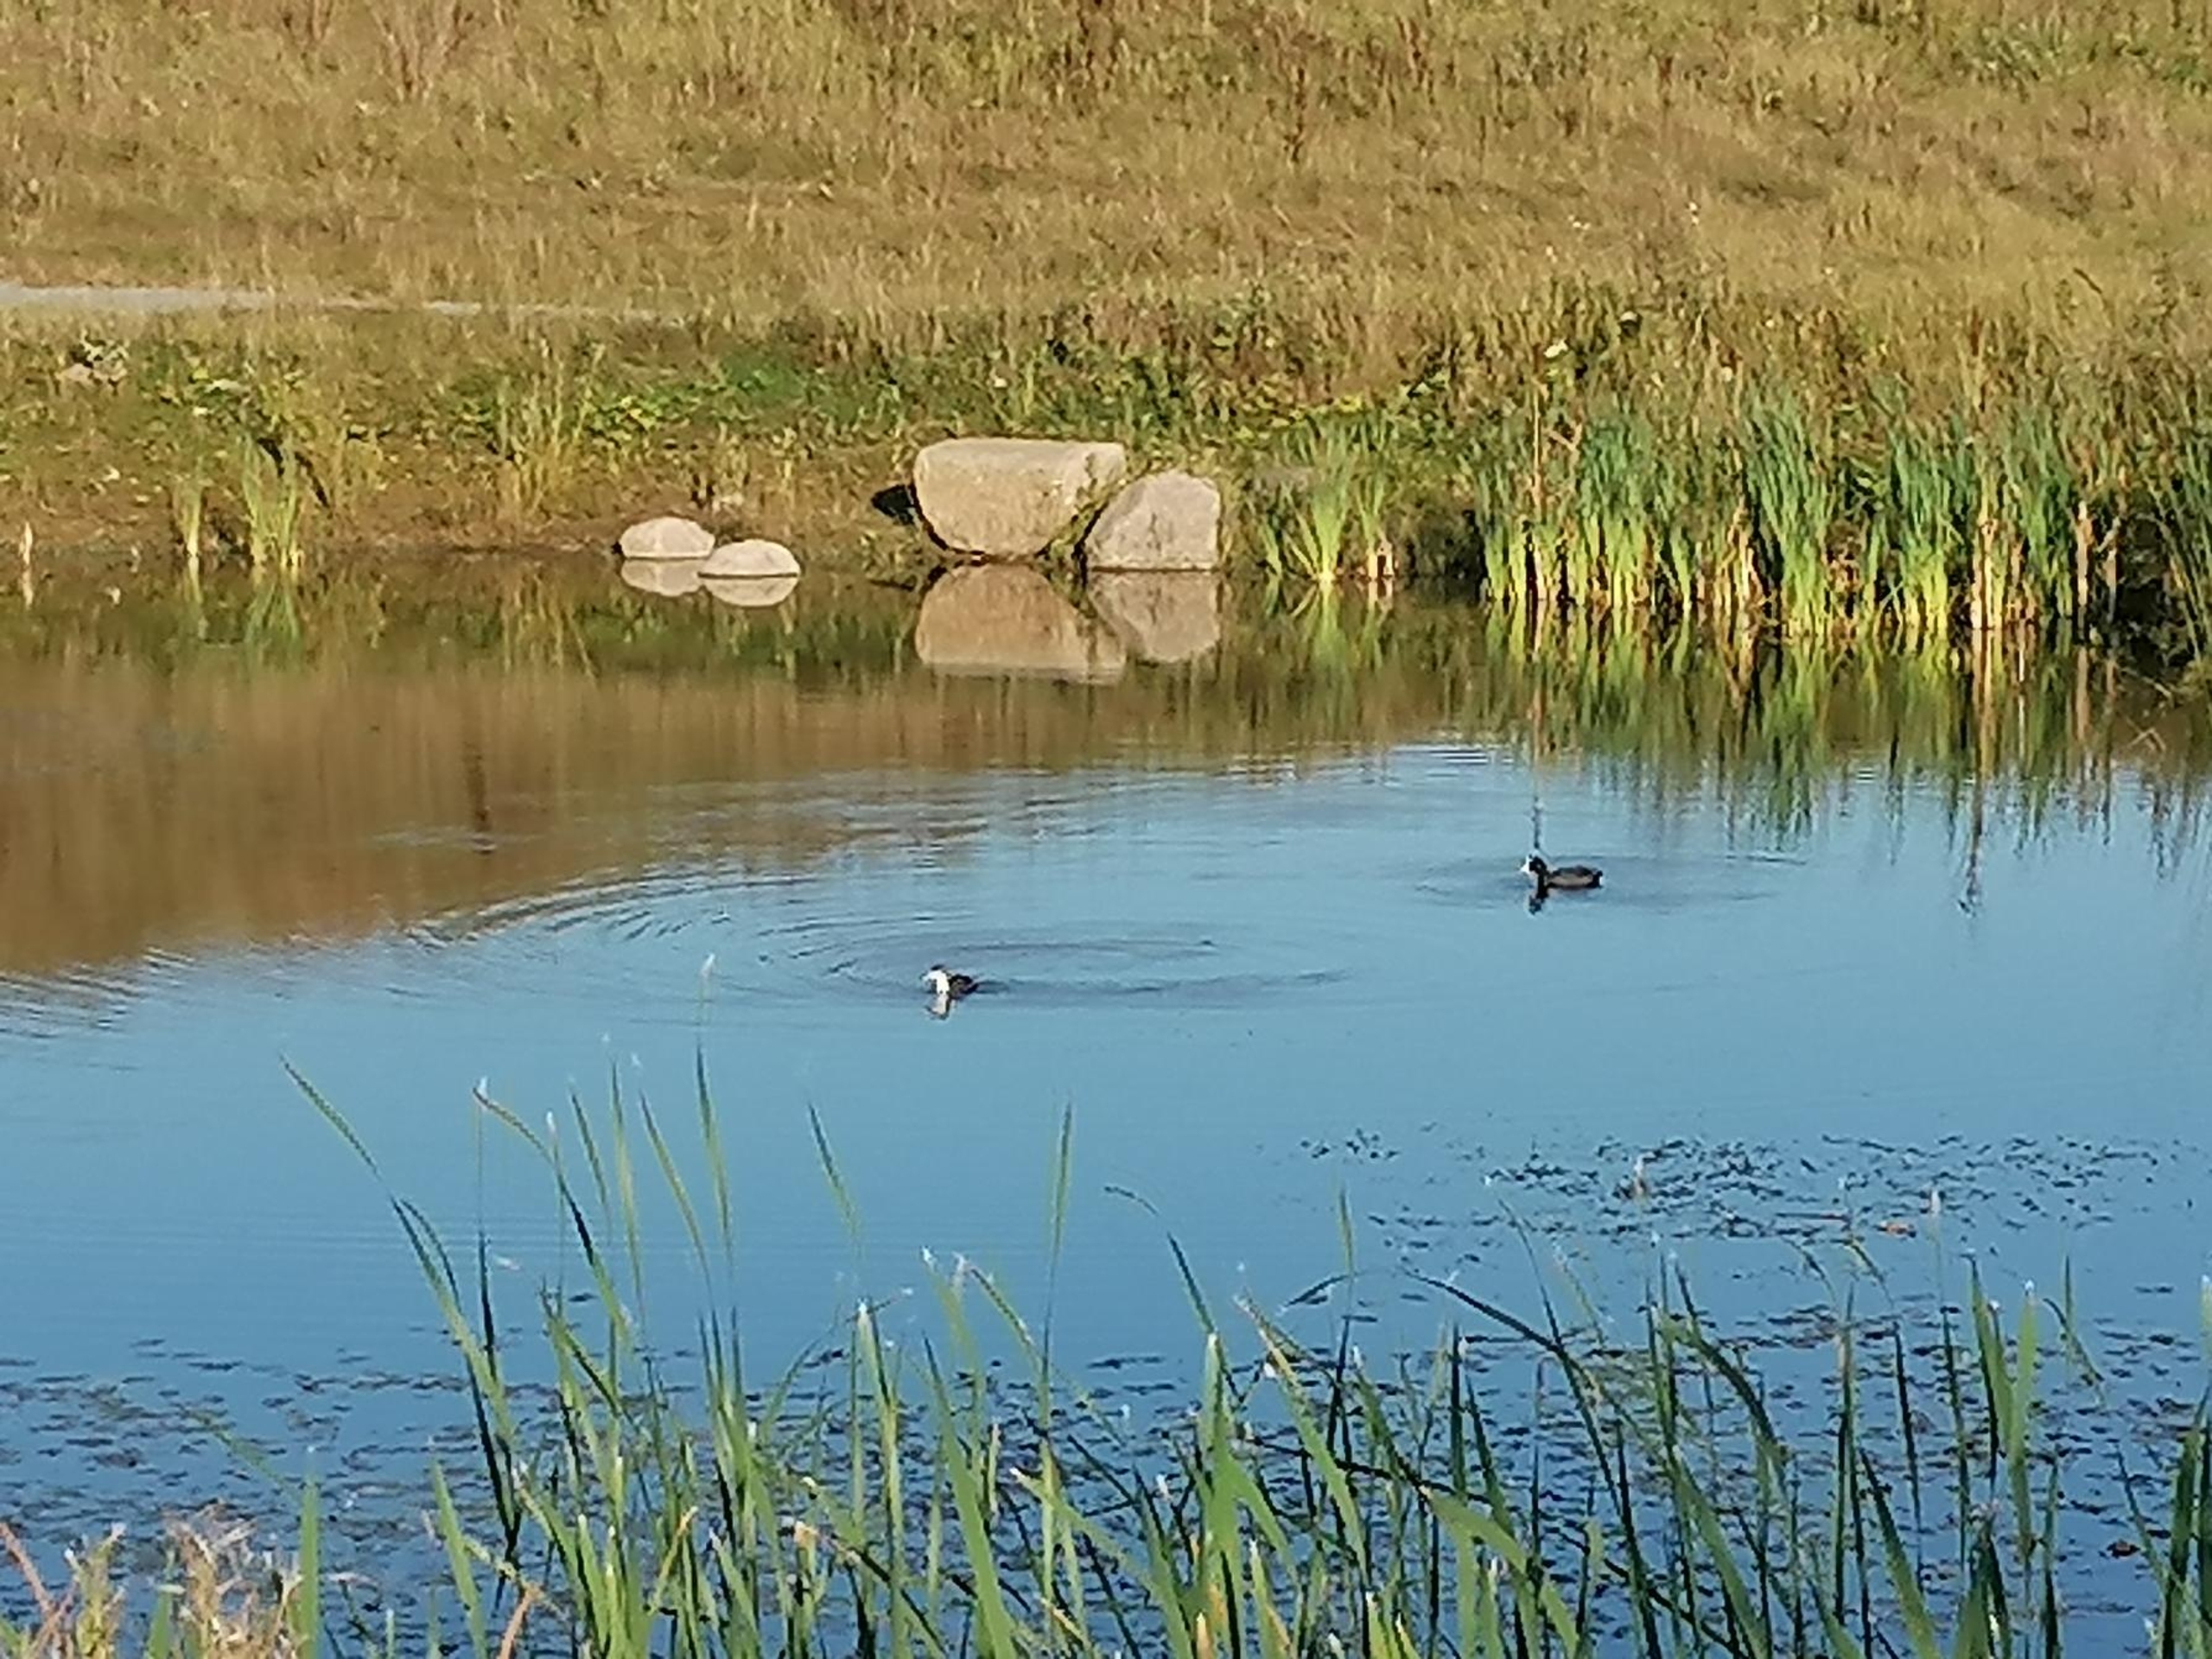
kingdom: Animalia
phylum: Chordata
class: Aves
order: Gruiformes
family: Rallidae
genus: Fulica
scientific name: Fulica atra
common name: Blishøne
